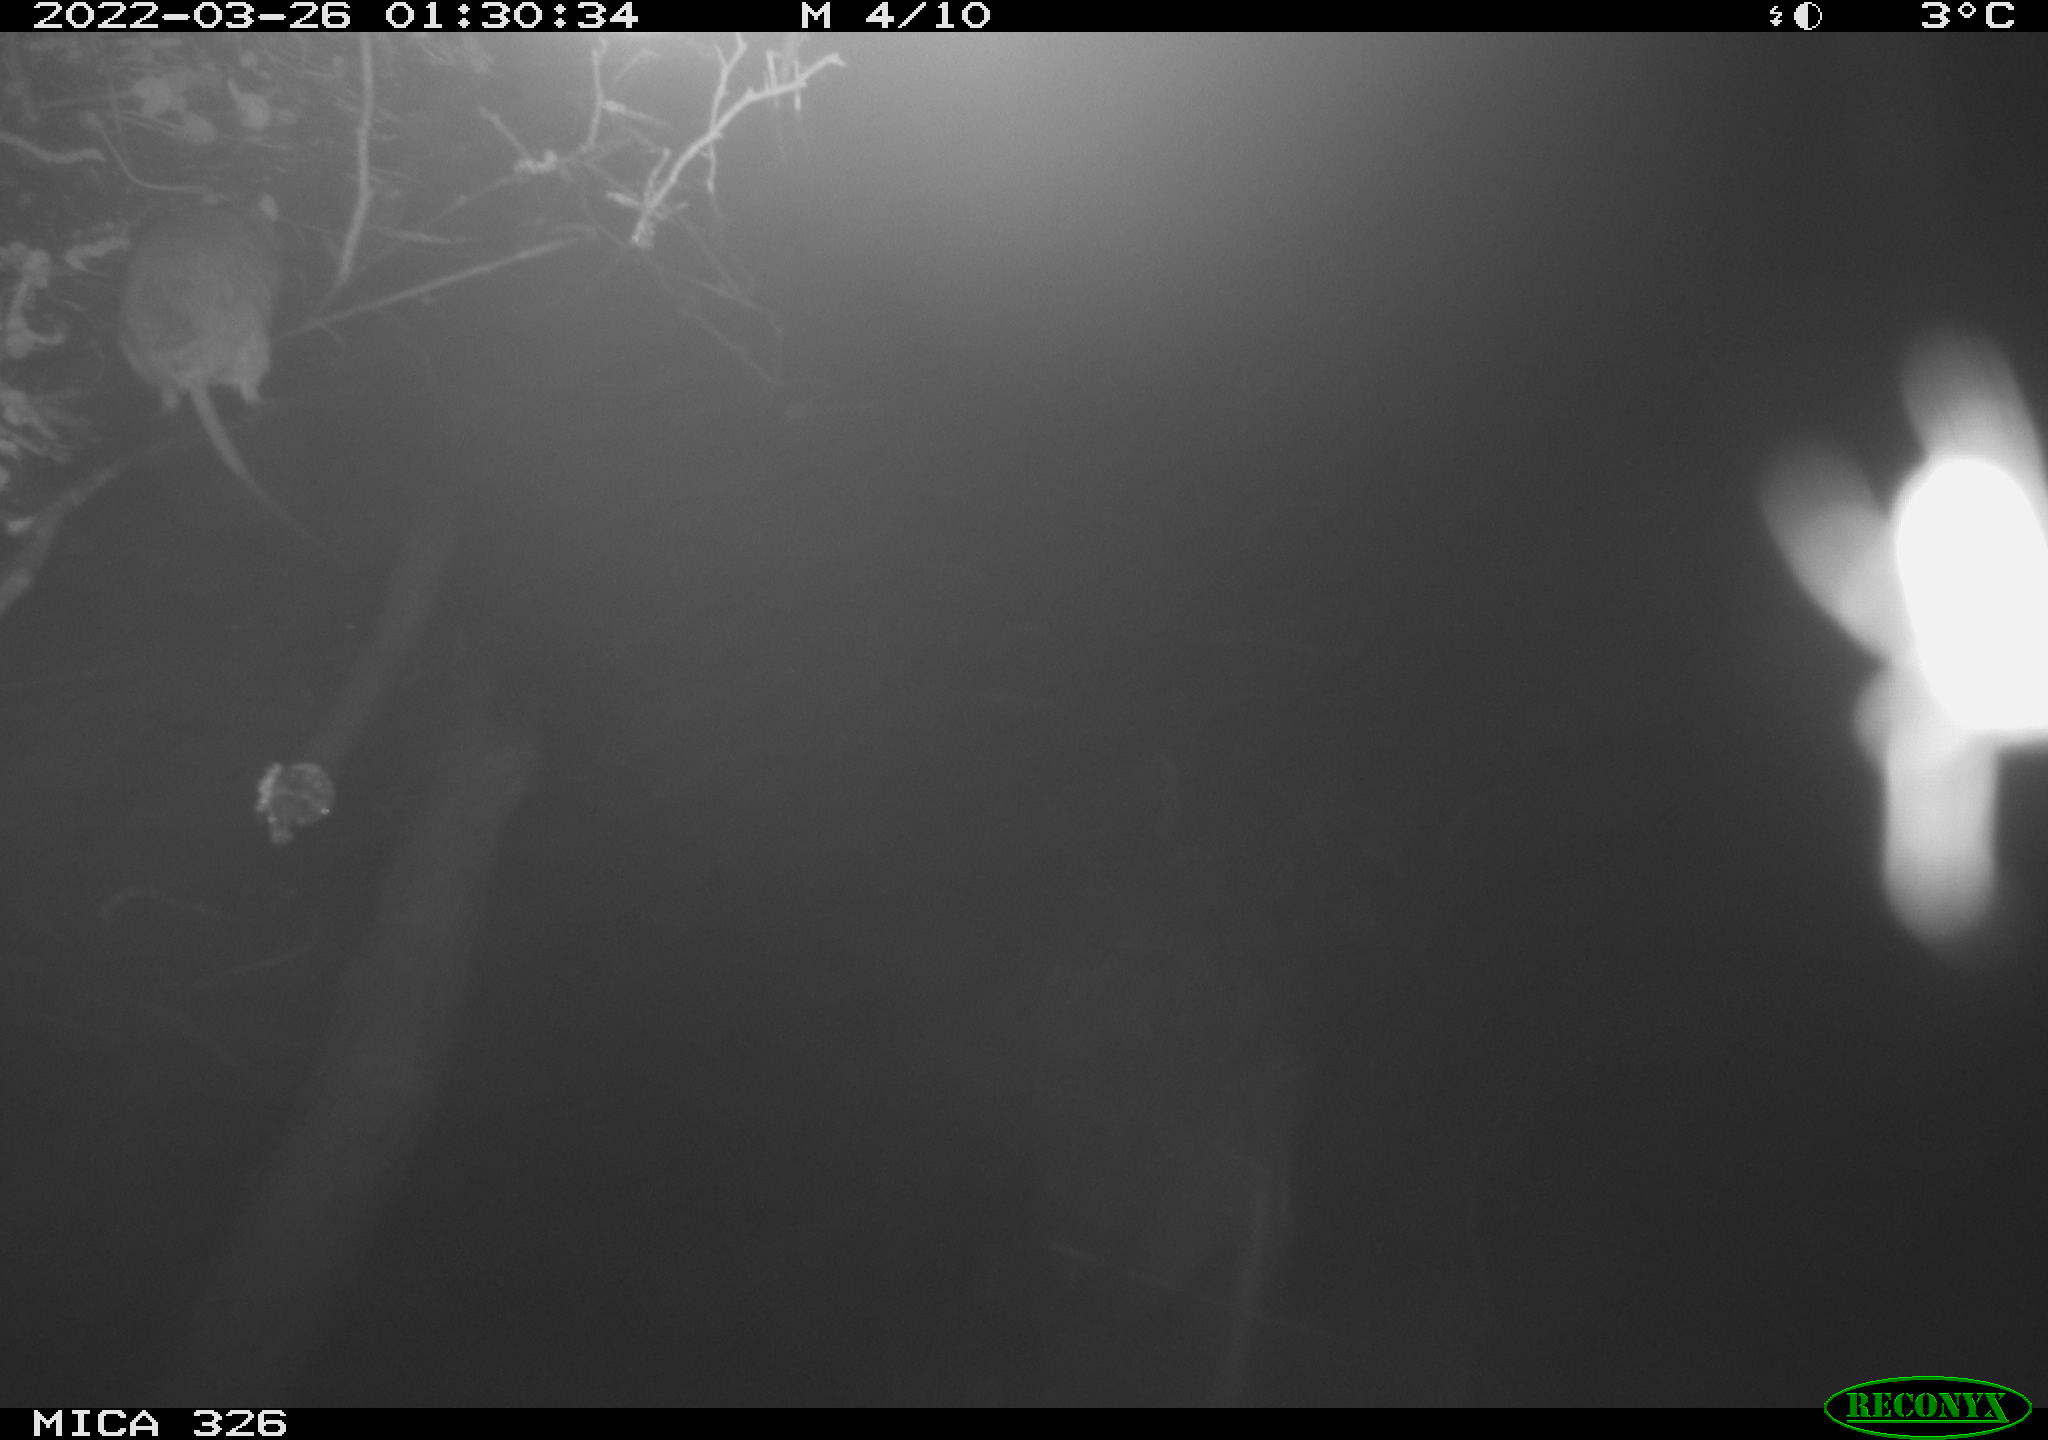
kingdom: Animalia
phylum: Chordata
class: Mammalia
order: Rodentia
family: Muridae
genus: Rattus
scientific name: Rattus norvegicus
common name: Brown rat
